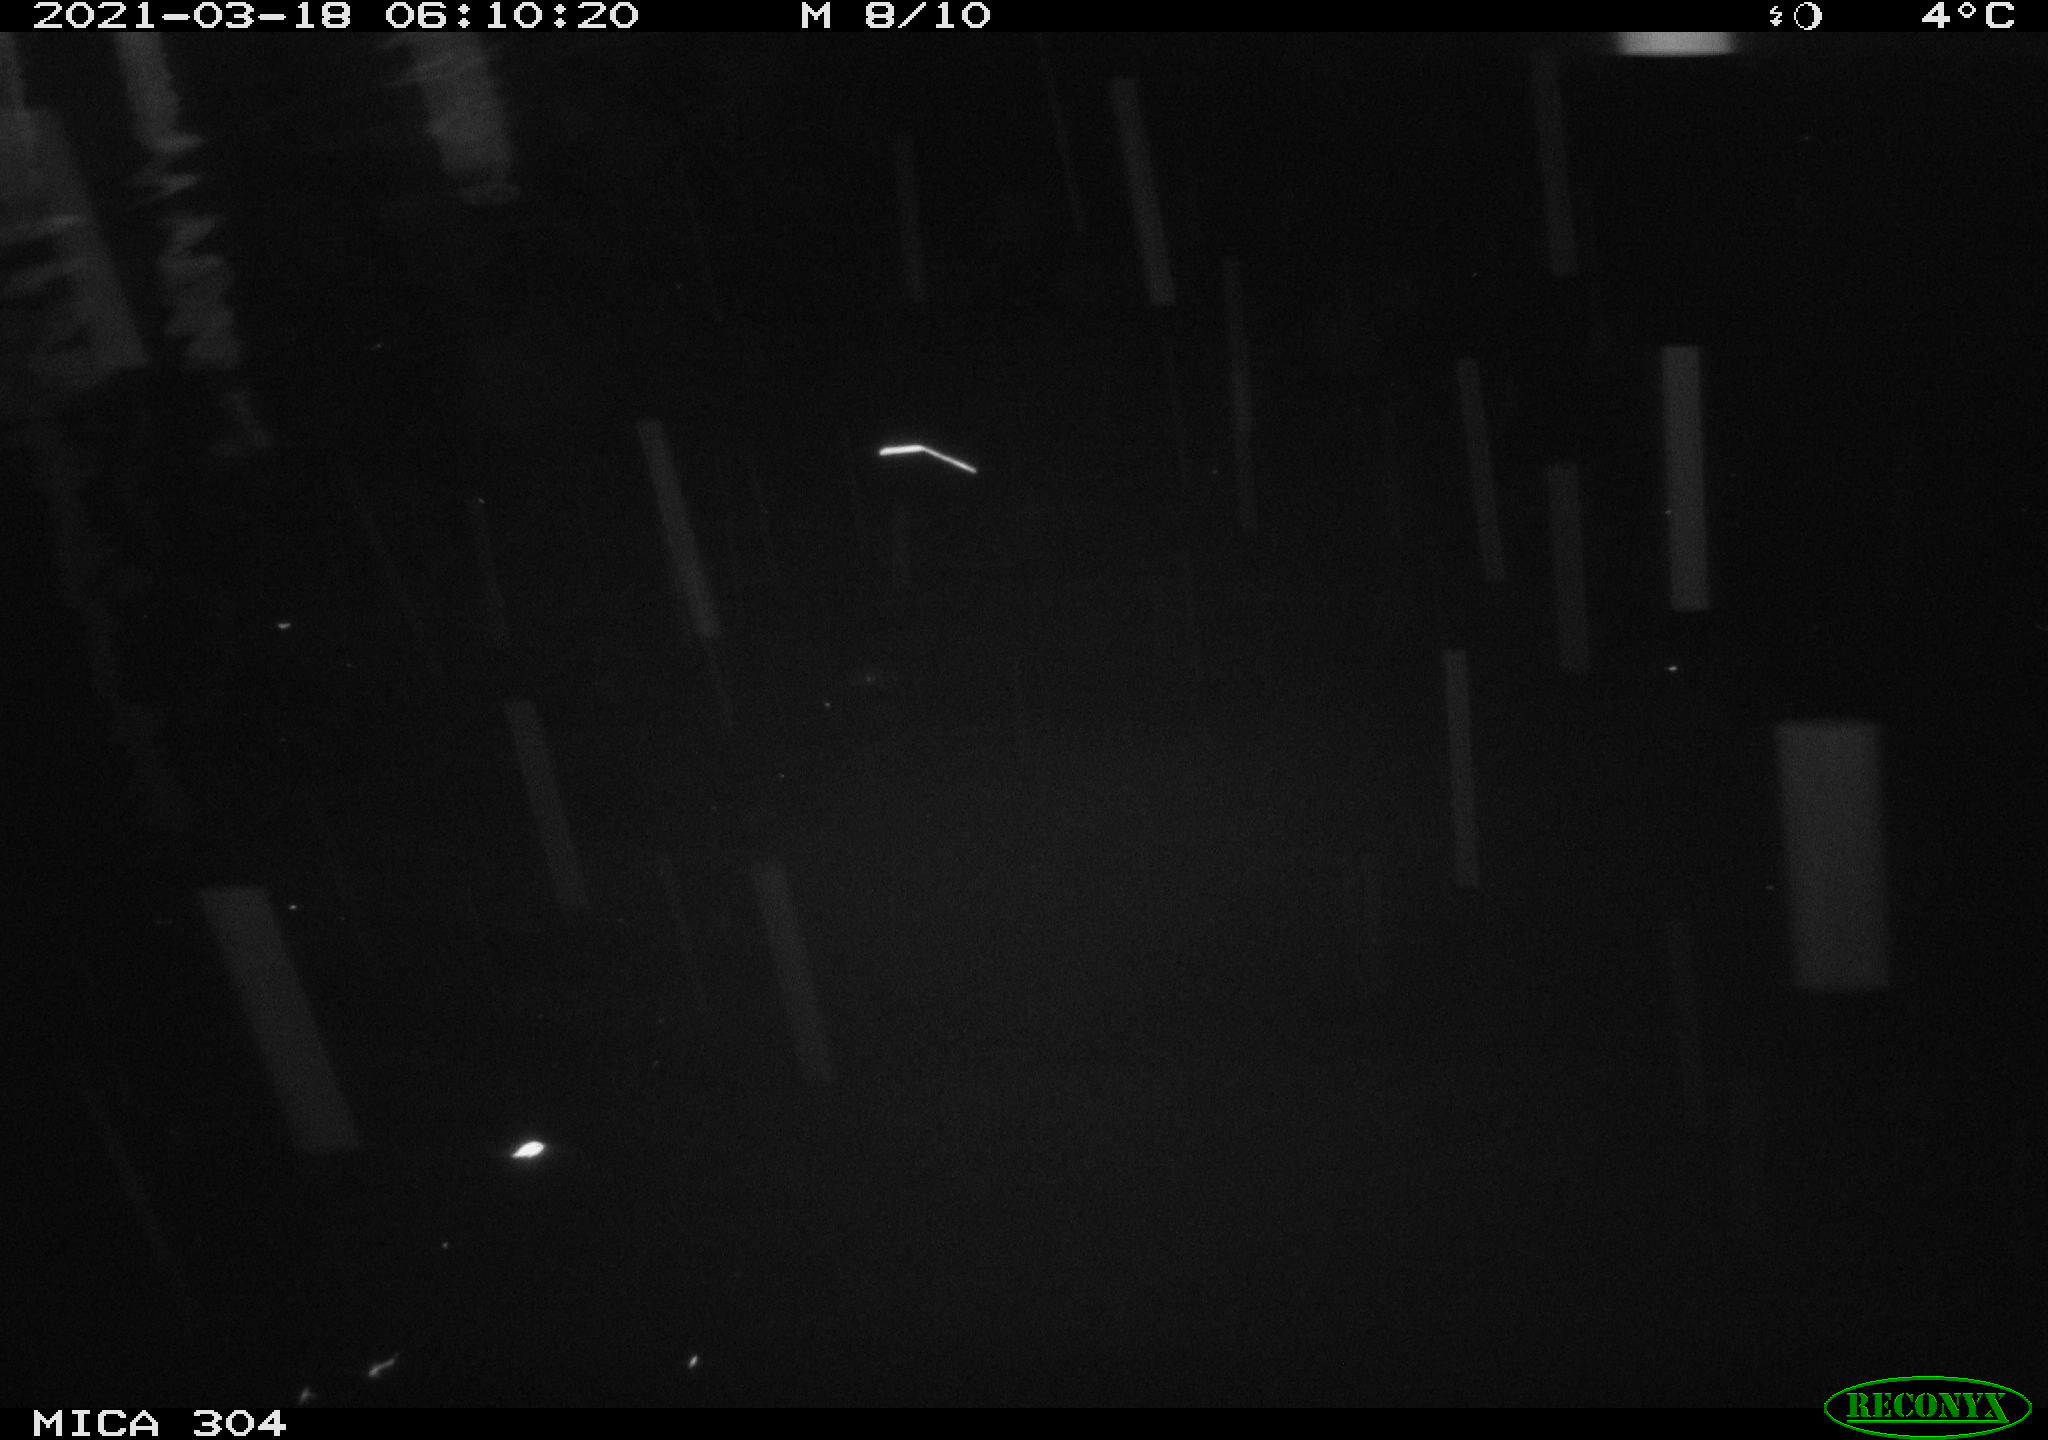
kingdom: Animalia
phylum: Chordata
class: Aves
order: Anseriformes
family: Anatidae
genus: Anas
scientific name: Anas platyrhynchos
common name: Mallard
